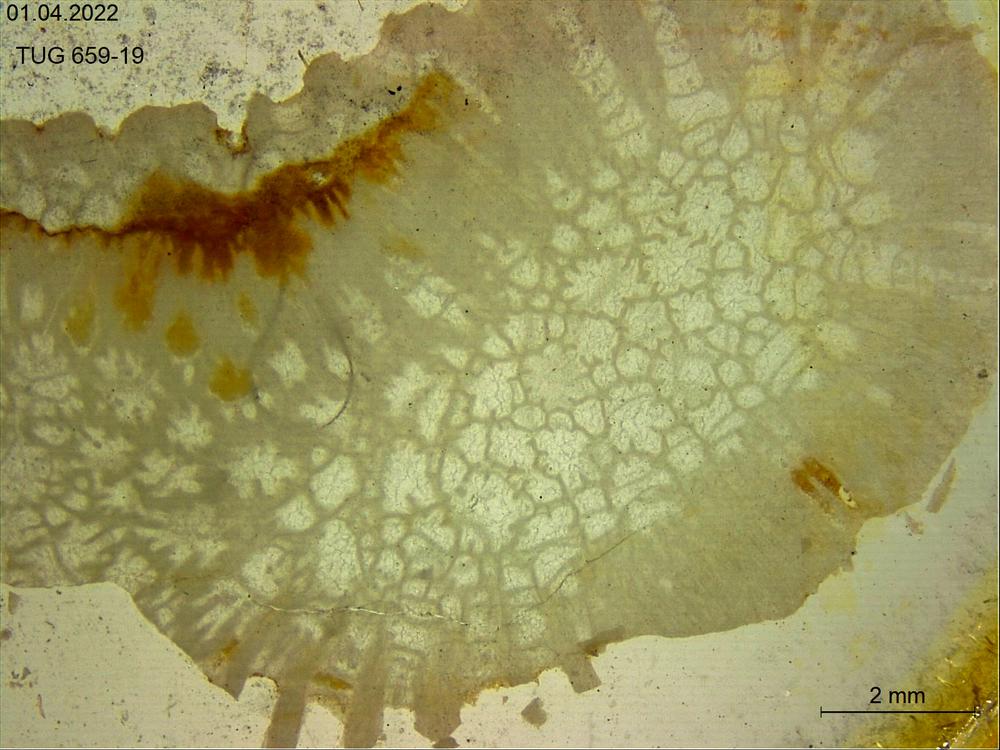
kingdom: Animalia
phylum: Cnidaria
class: Anthozoa
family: Theciidae
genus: Thecia
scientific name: Thecia swinderniana
